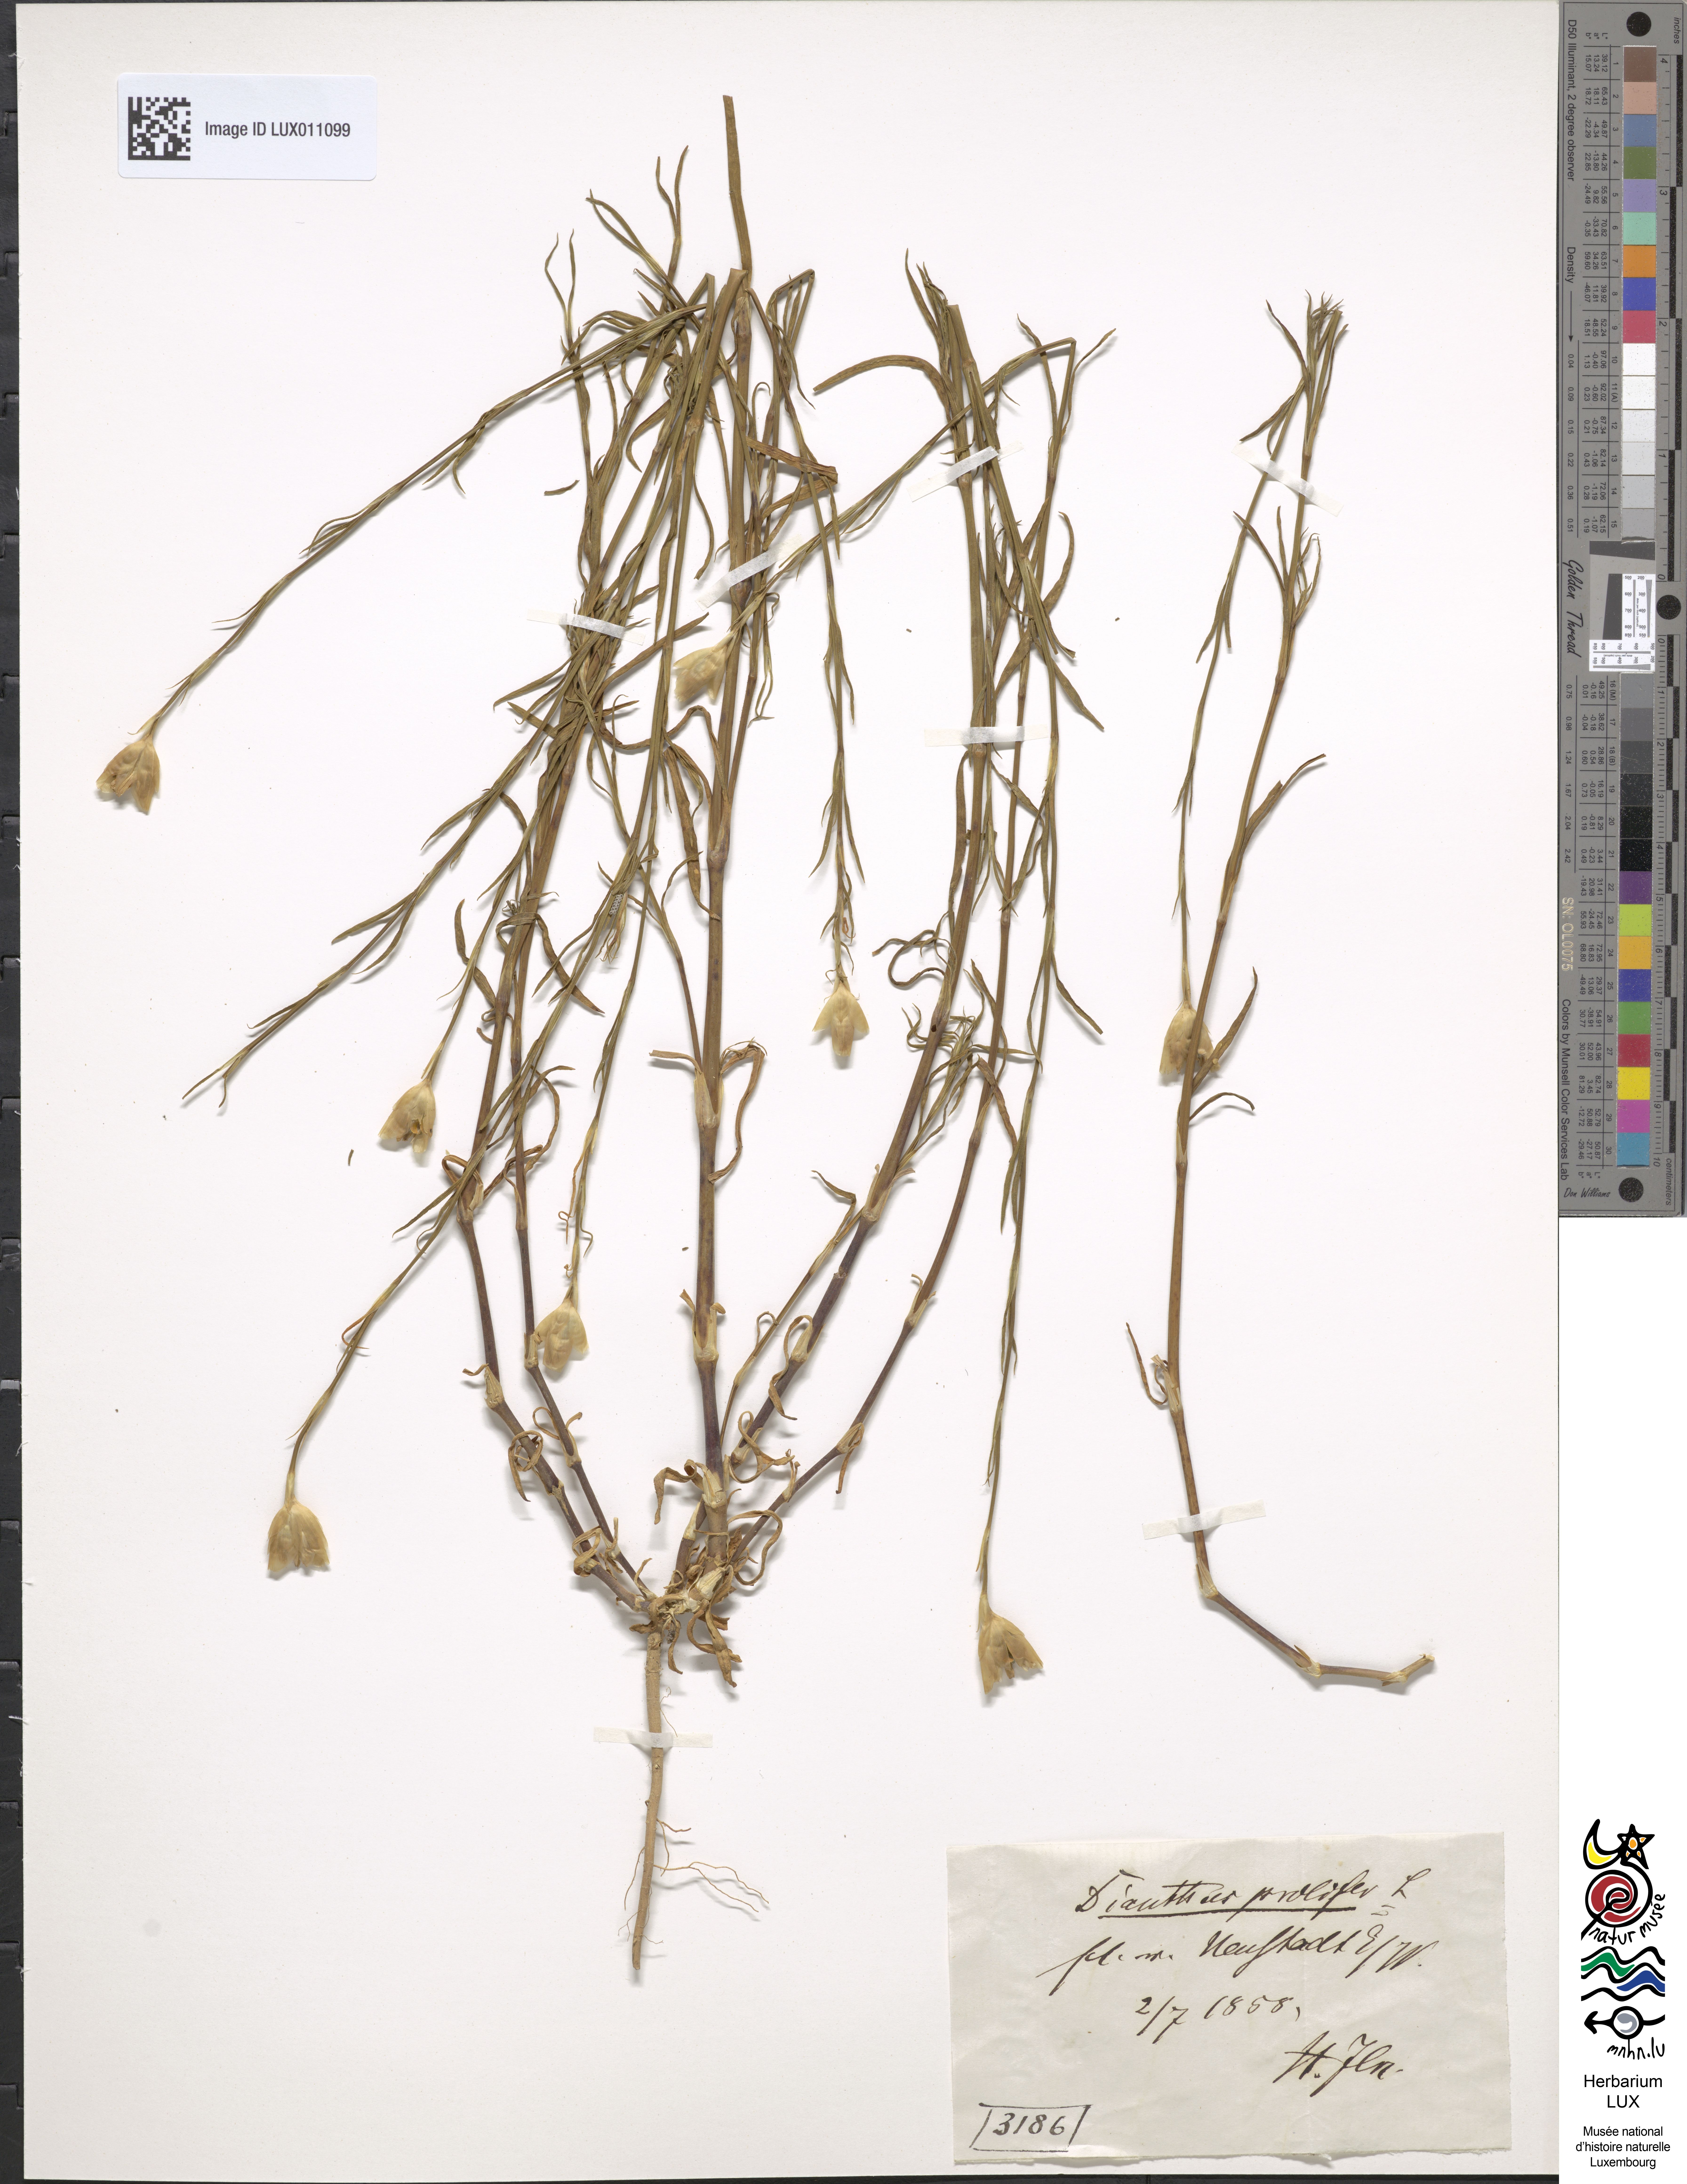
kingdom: Plantae
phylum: Tracheophyta
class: Magnoliopsida
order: Caryophyllales
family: Caryophyllaceae
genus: Petrorhagia
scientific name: Petrorhagia prolifera
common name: Proliferous pink
